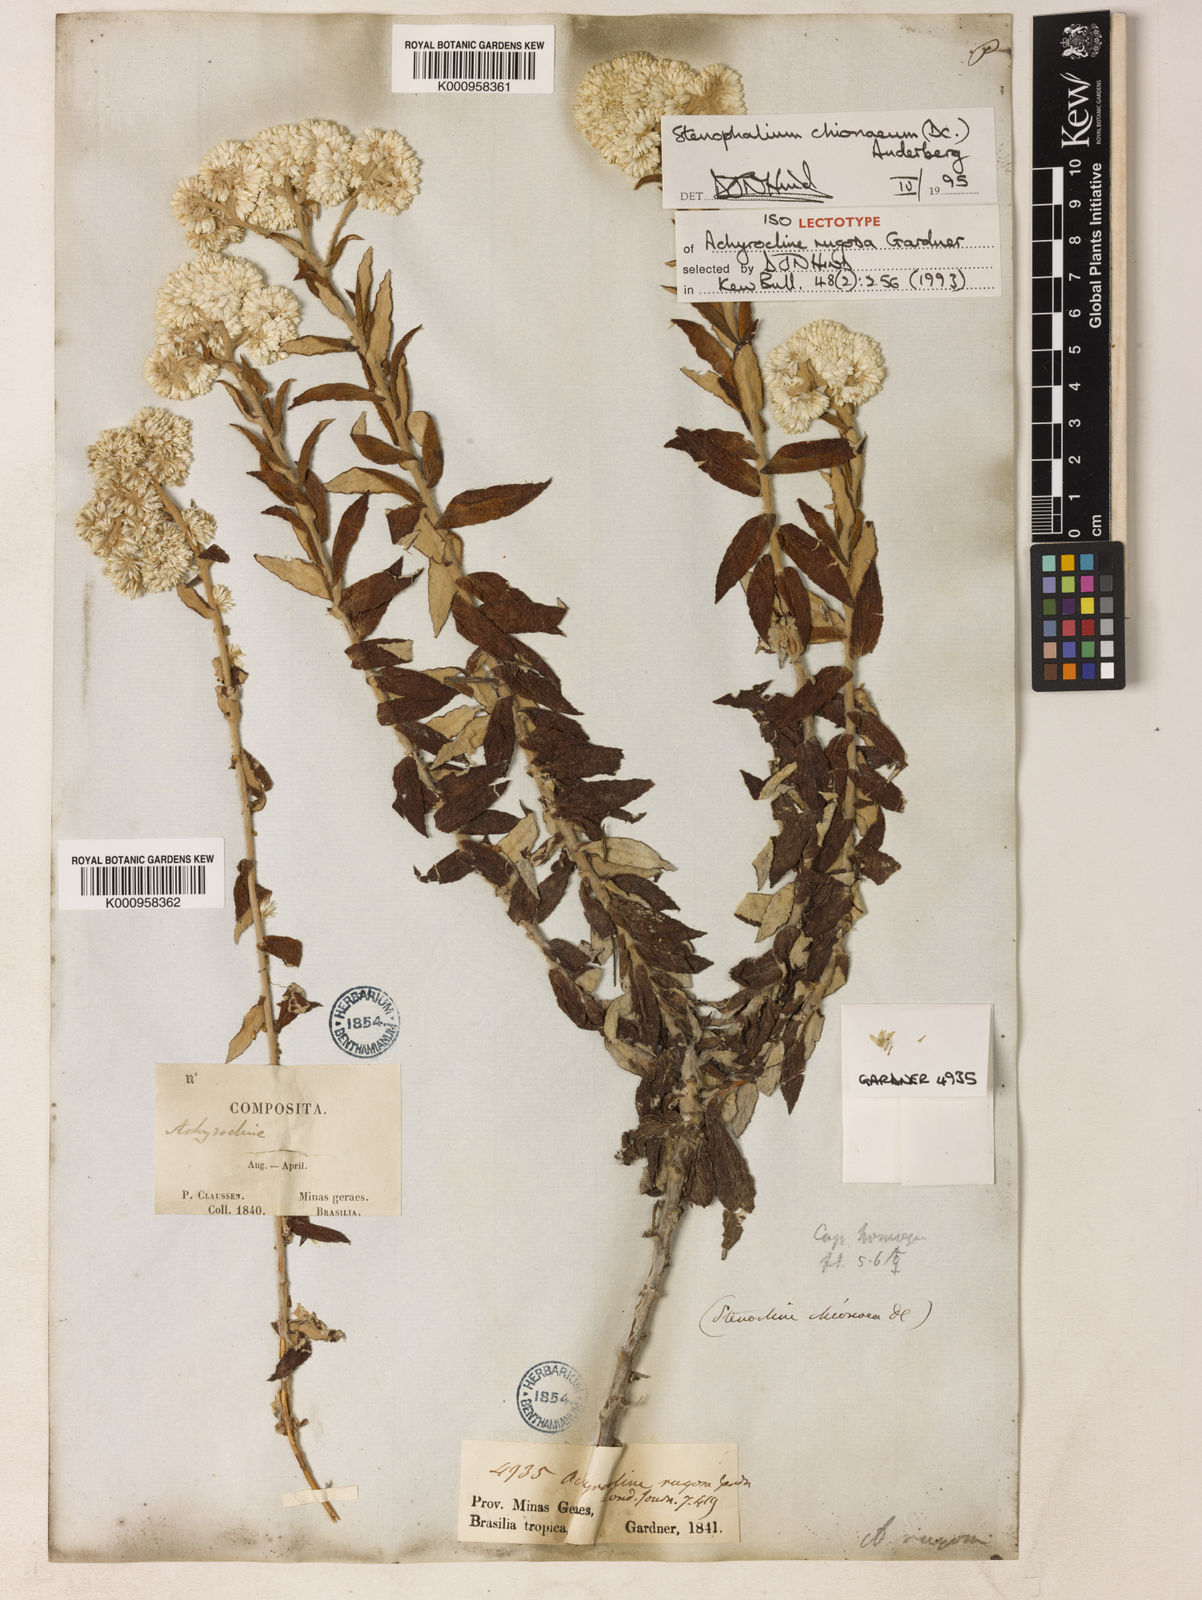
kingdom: Plantae
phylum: Tracheophyta
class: Magnoliopsida
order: Asterales
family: Asteraceae
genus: Achyrocline
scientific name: Achyrocline chionaea
